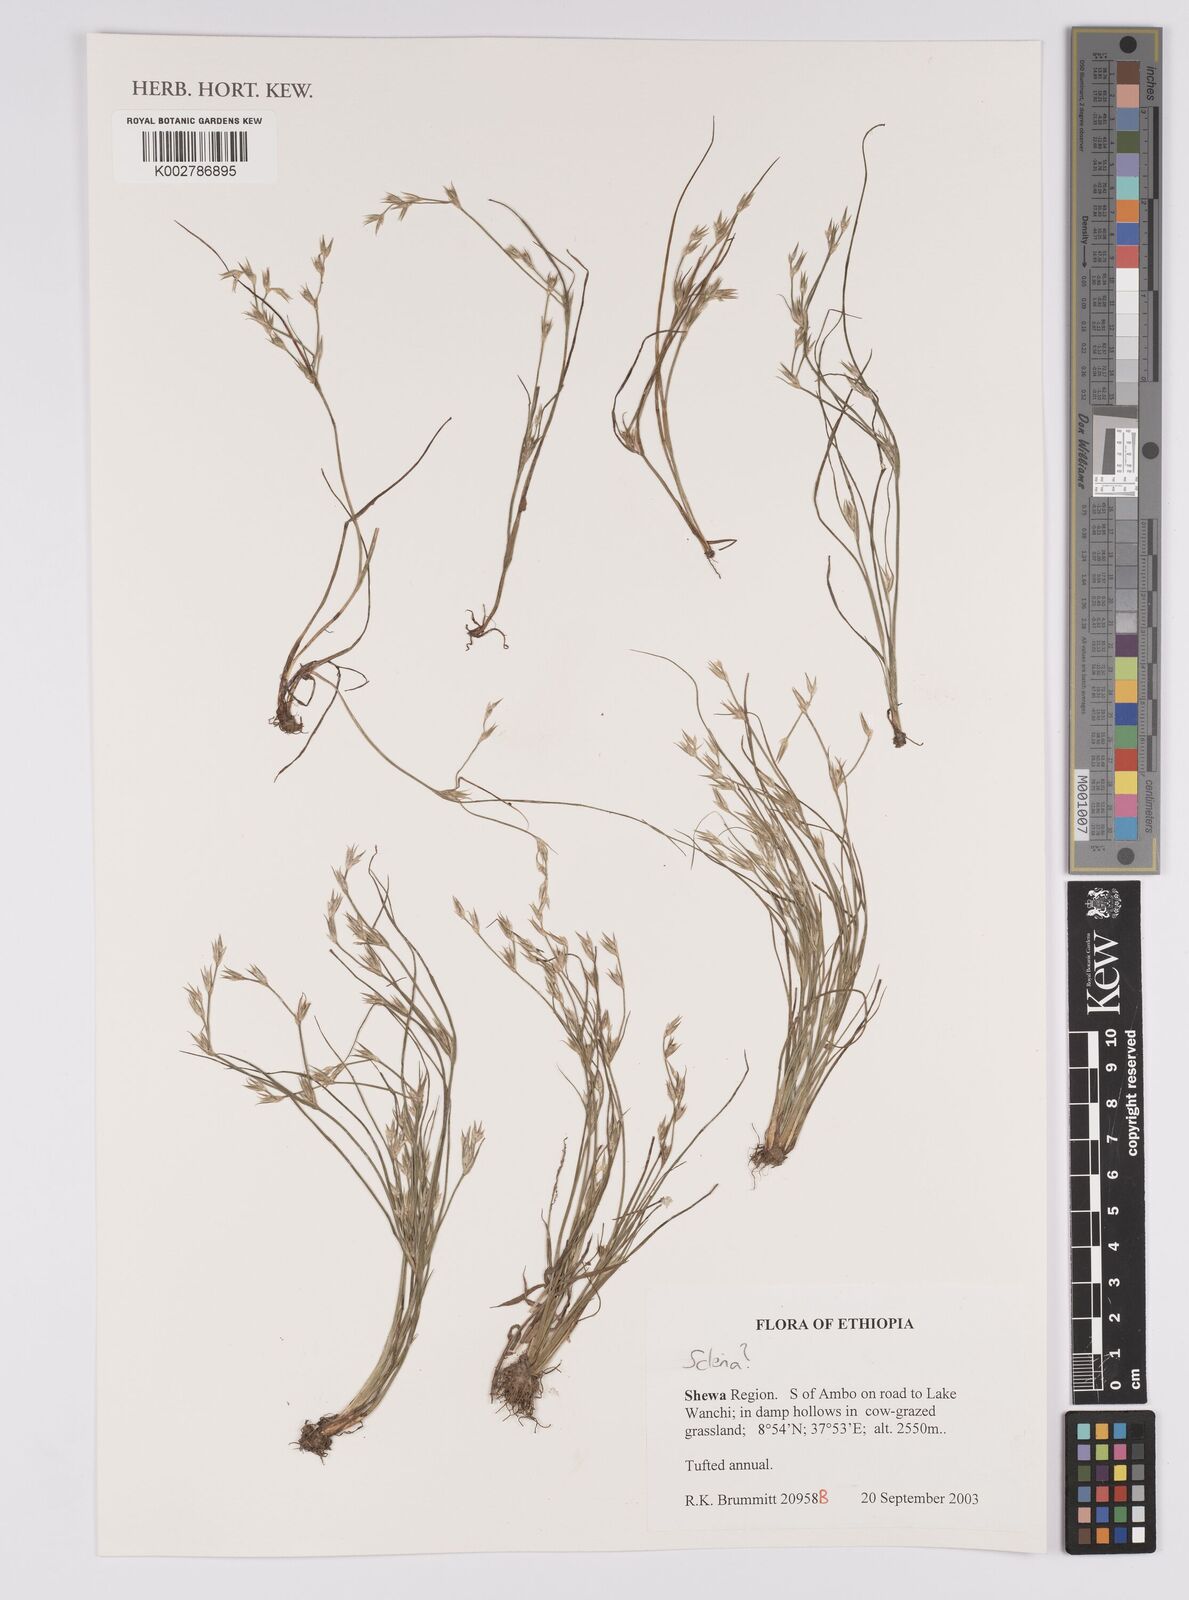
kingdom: Plantae
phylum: Tracheophyta
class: Liliopsida
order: Poales
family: Cyperaceae
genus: Scleria
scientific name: Scleria
